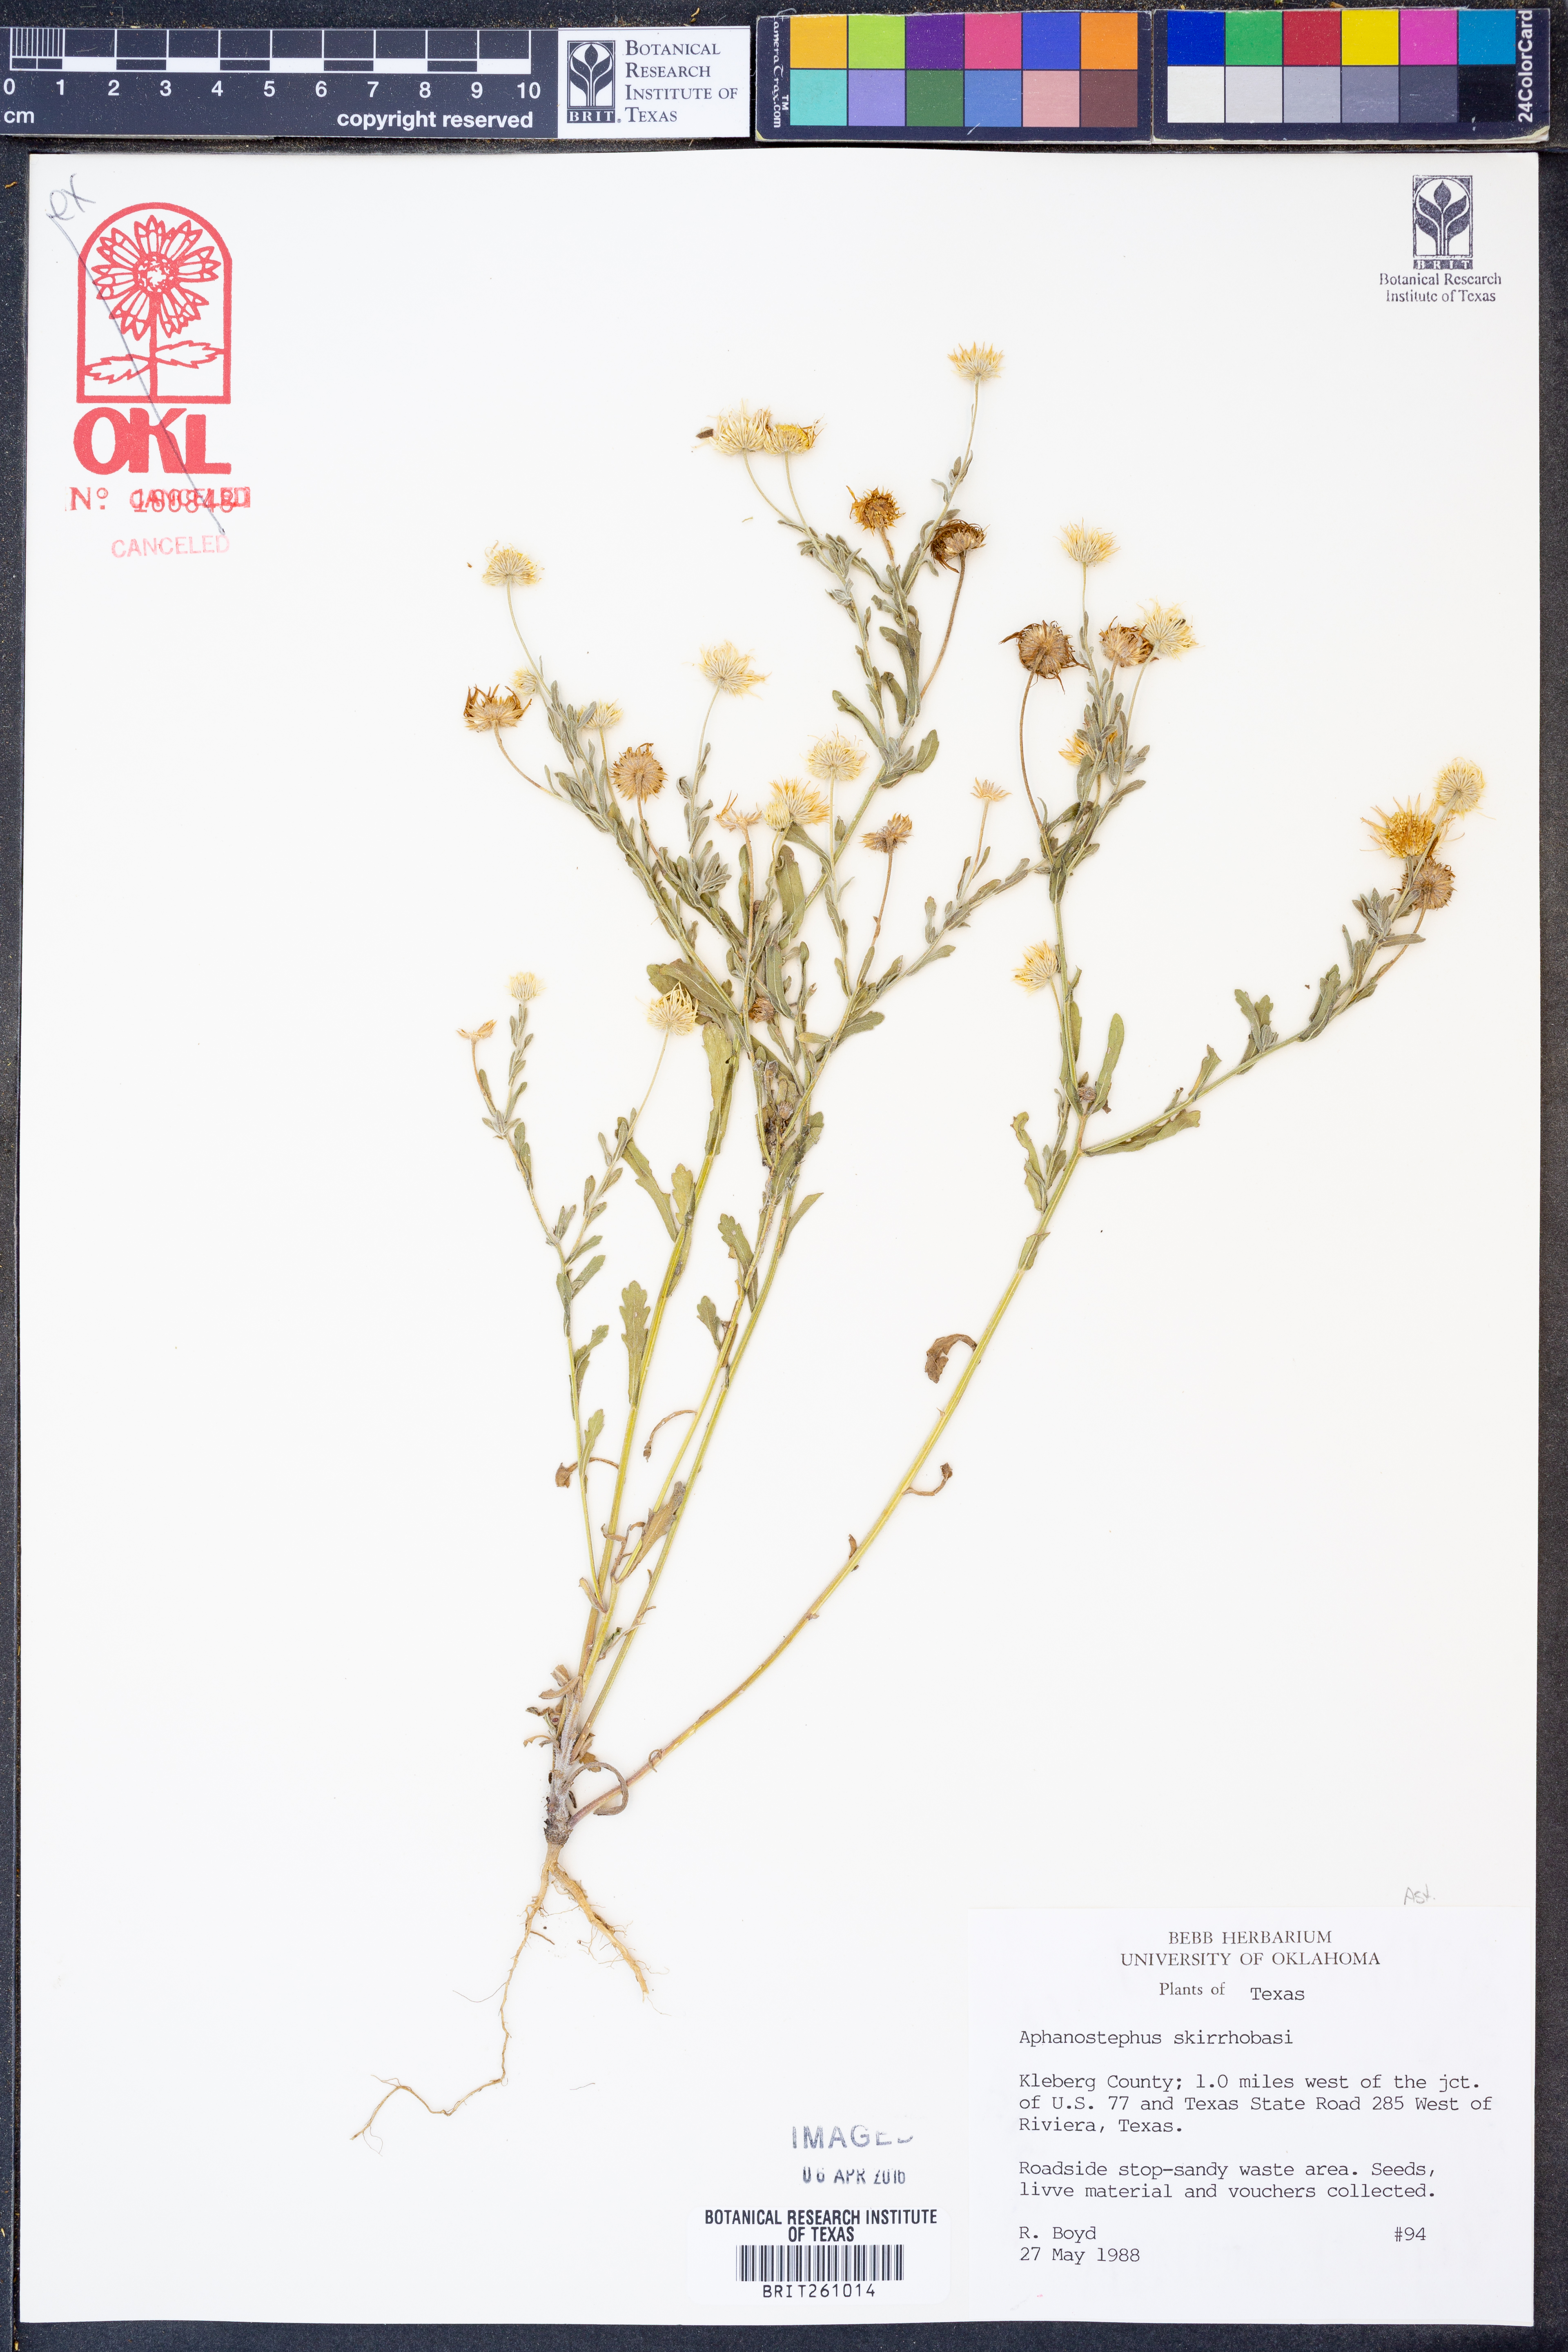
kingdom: Plantae
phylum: Tracheophyta
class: Magnoliopsida
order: Asterales
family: Asteraceae
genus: Aphanostephus
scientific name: Aphanostephus skirrhobasis
